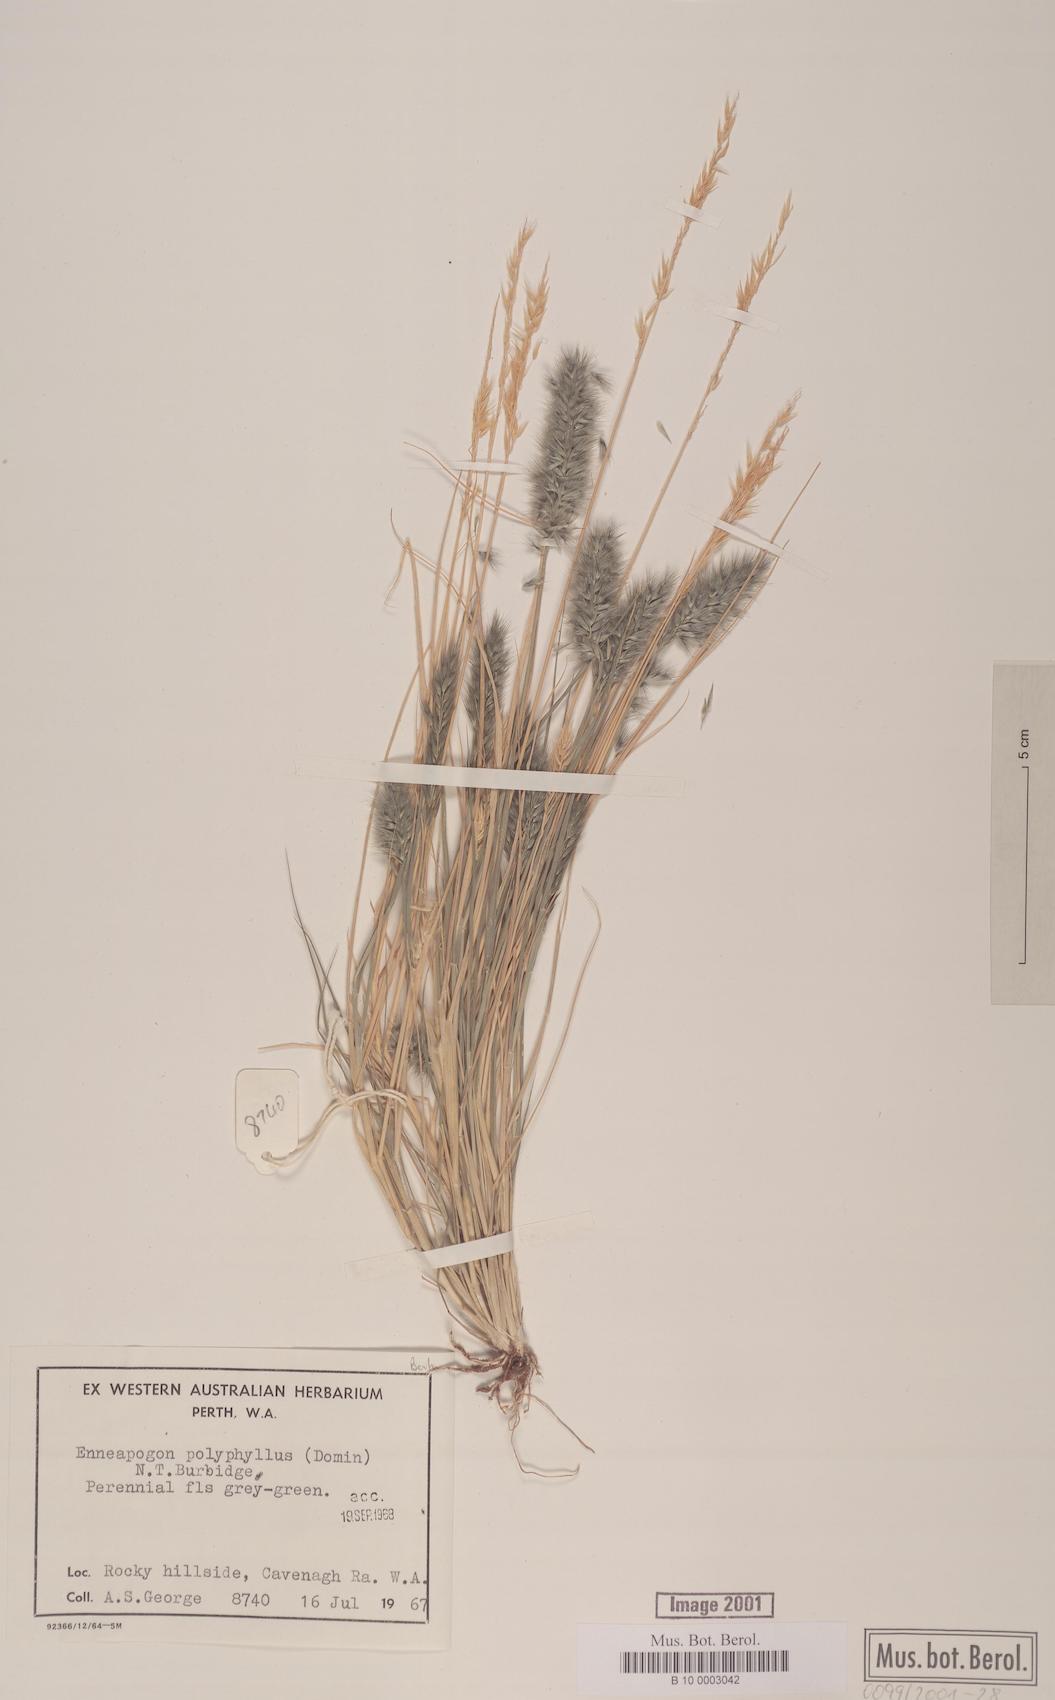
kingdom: Plantae
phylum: Tracheophyta
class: Liliopsida
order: Poales
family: Poaceae
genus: Enneapogon
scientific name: Enneapogon polyphyllus
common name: Leafy nineawn
